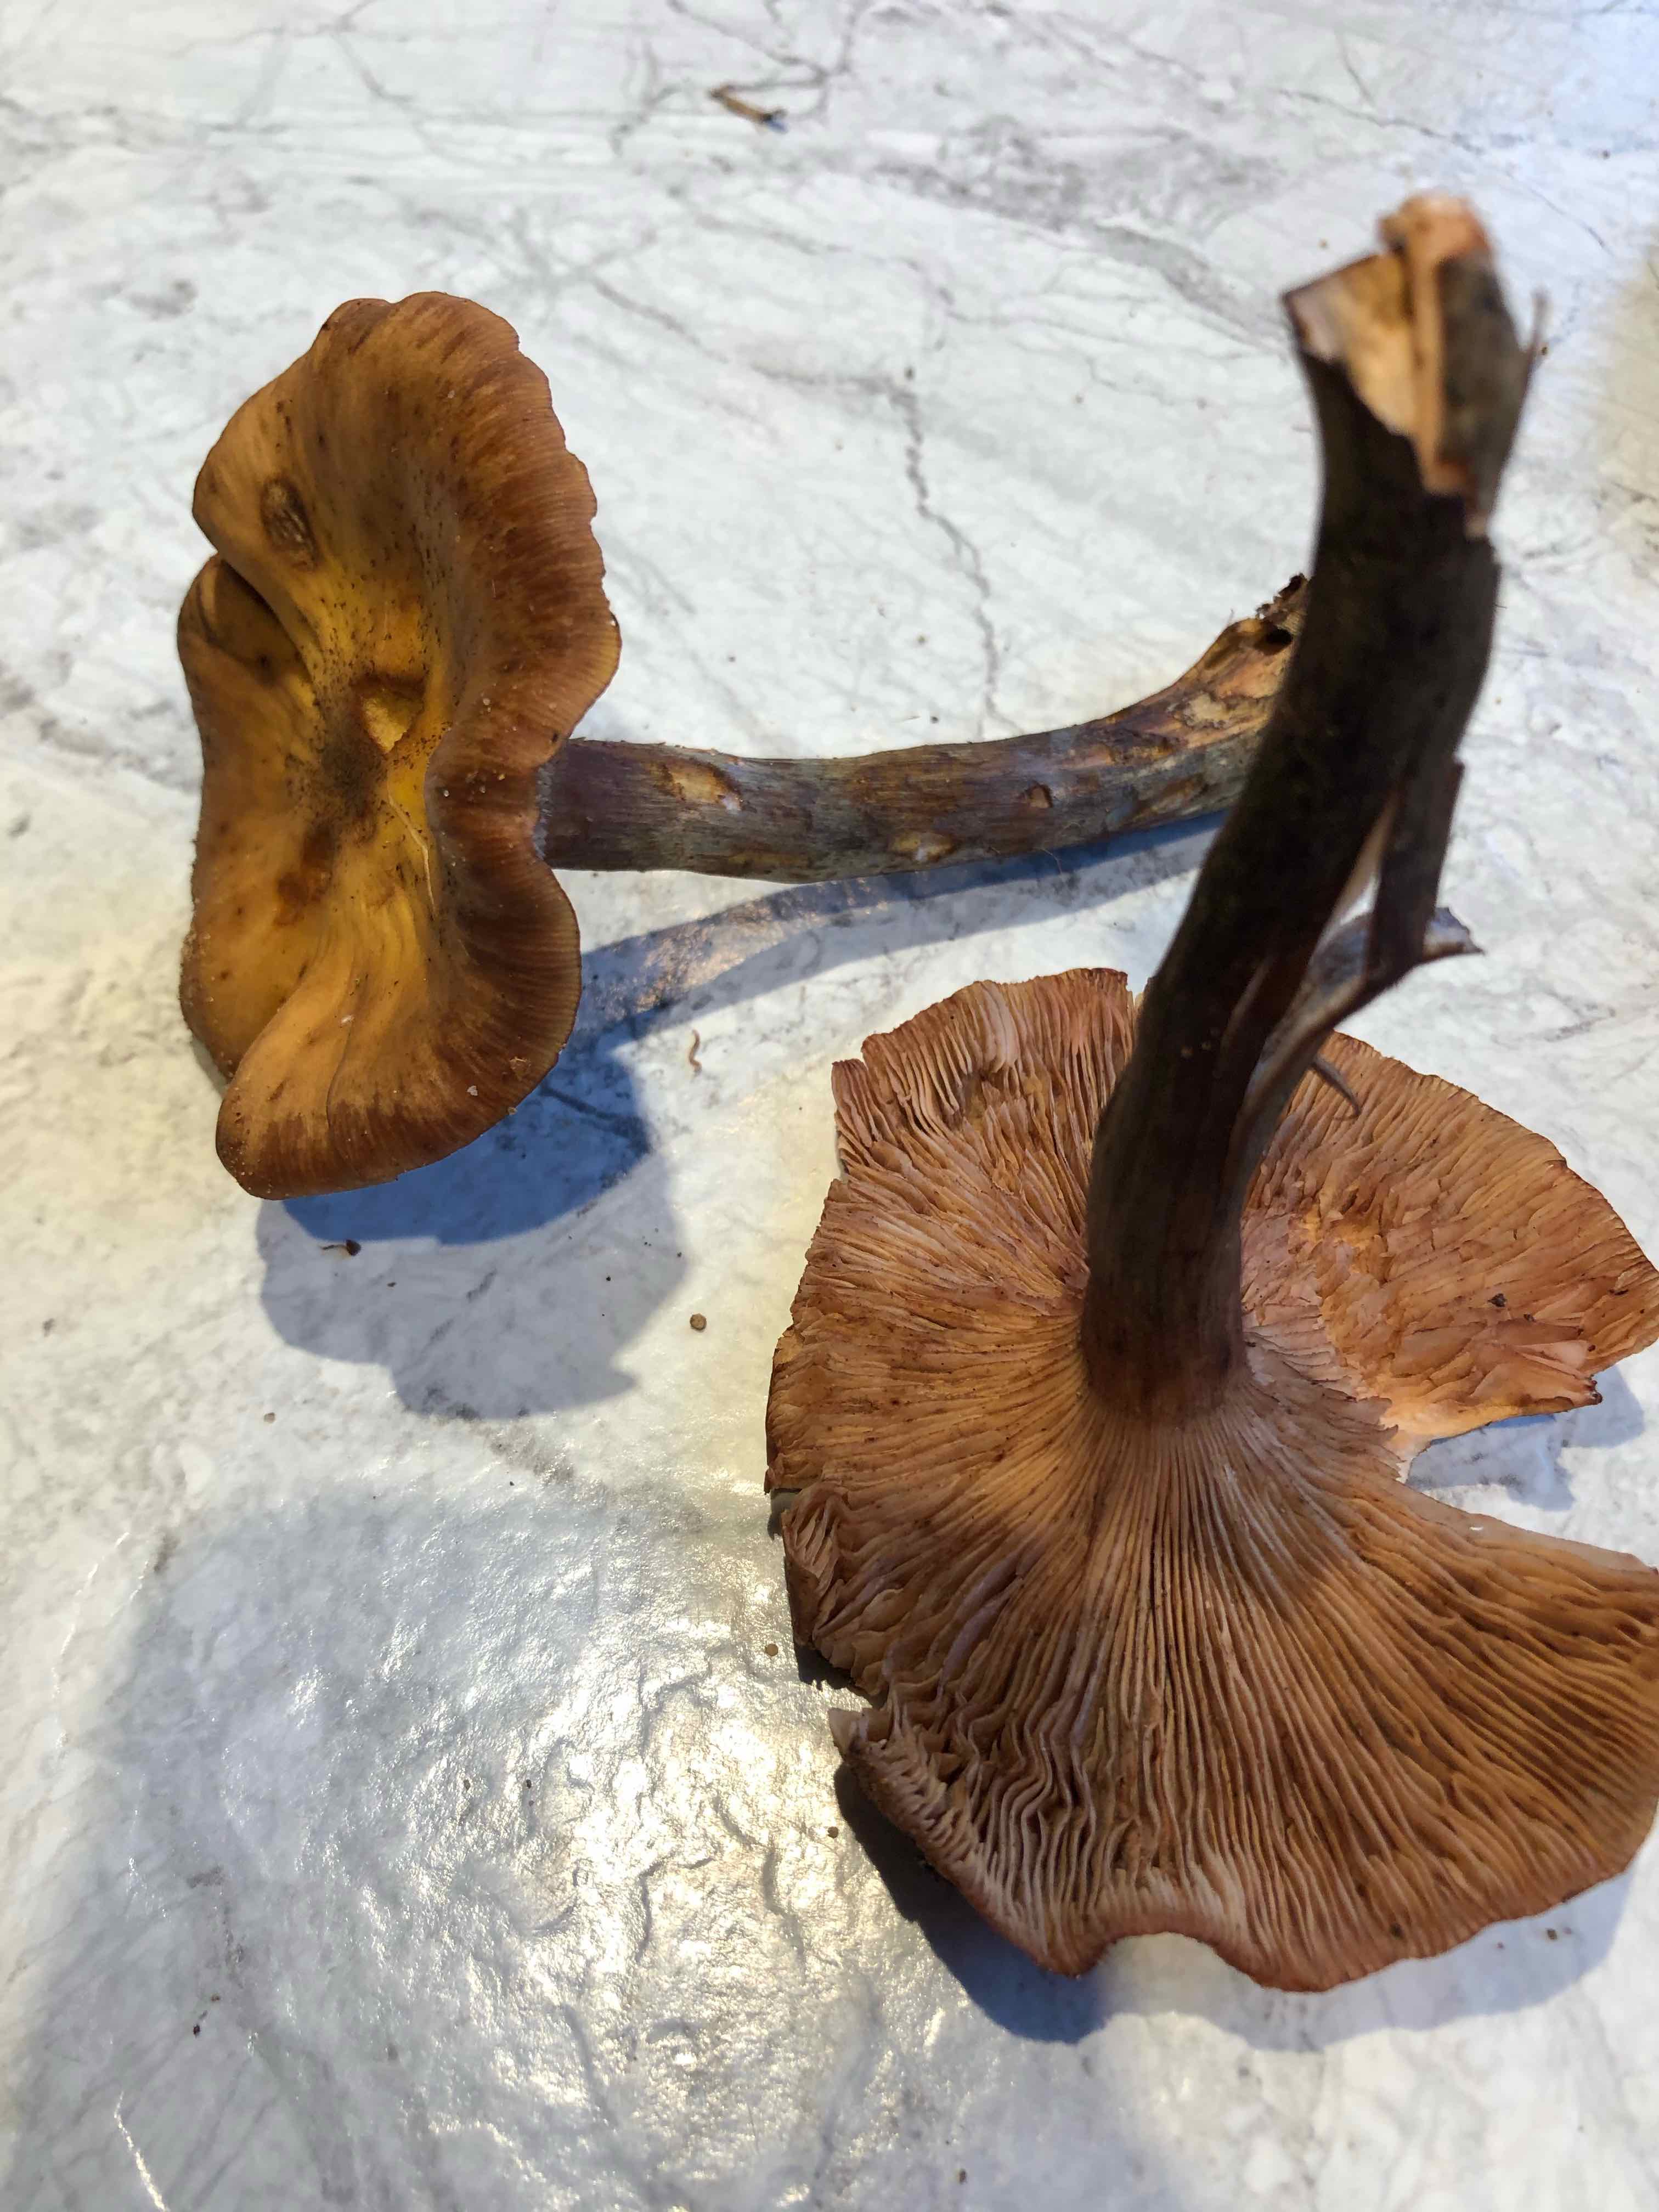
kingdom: Fungi
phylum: Basidiomycota
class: Agaricomycetes
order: Agaricales
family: Physalacriaceae
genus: Armillaria
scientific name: Armillaria
